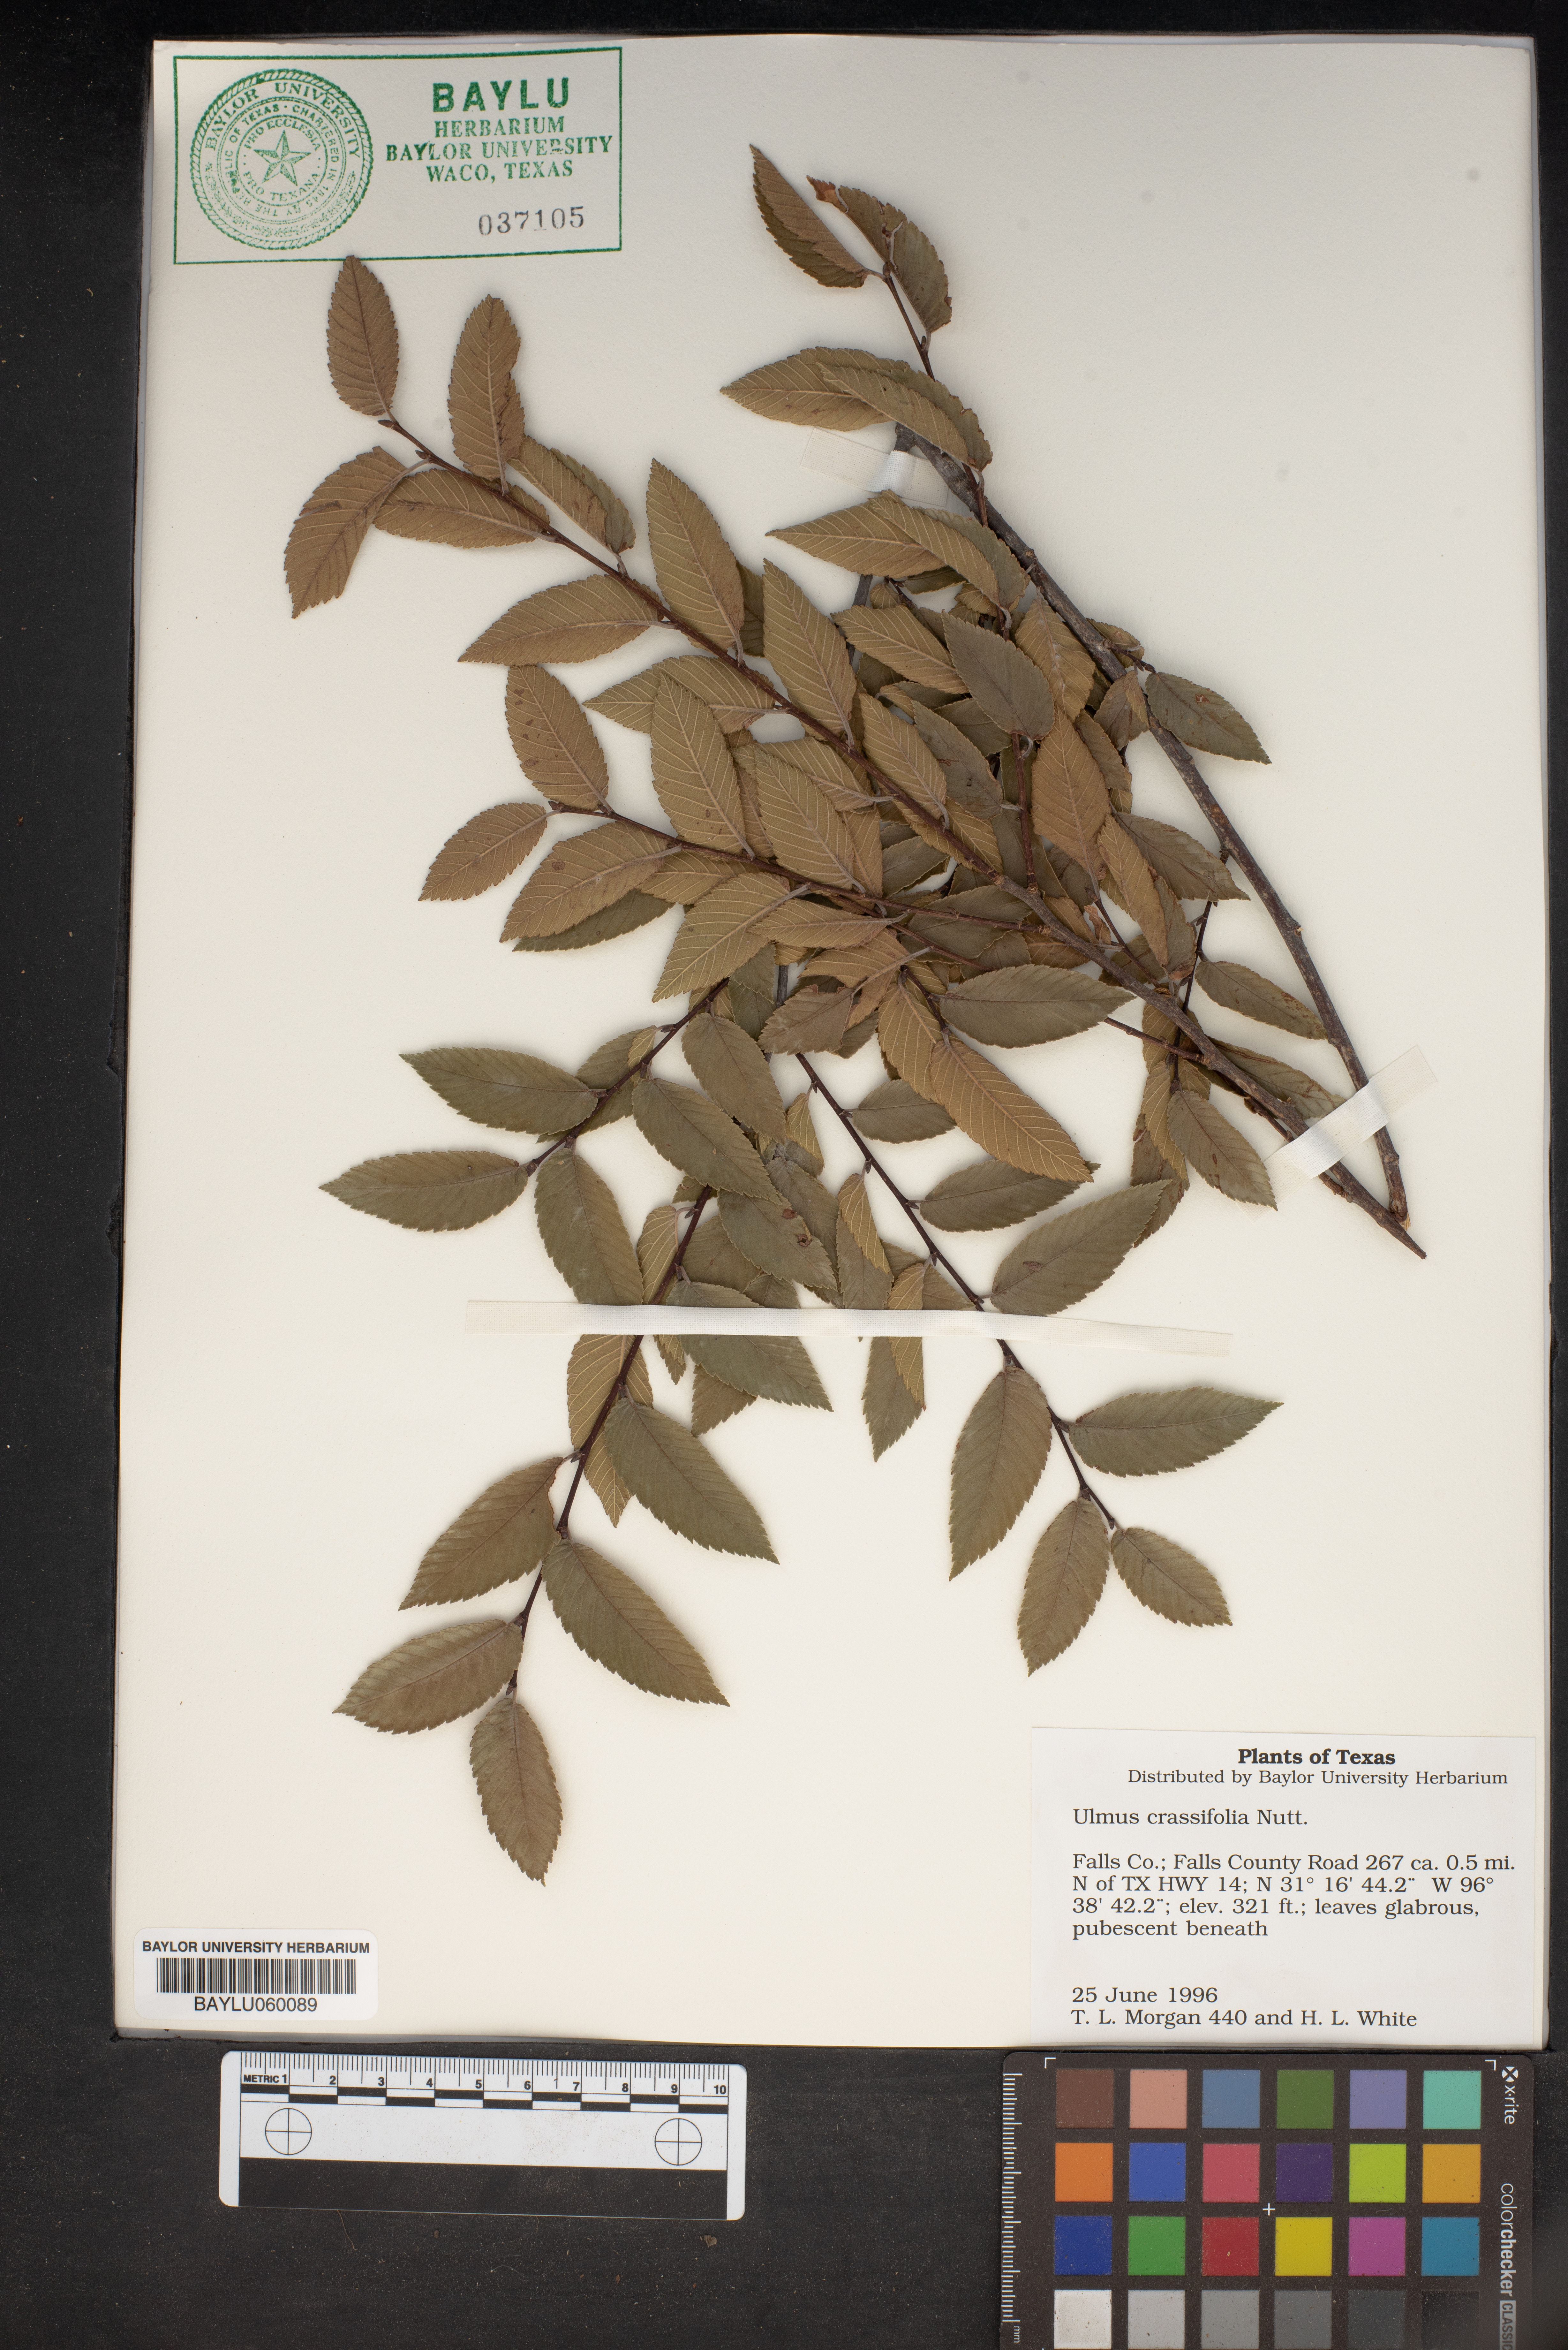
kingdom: Plantae
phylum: Tracheophyta
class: Magnoliopsida
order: Rosales
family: Ulmaceae
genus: Ulmus
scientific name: Ulmus crassifolia
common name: Basket elm
